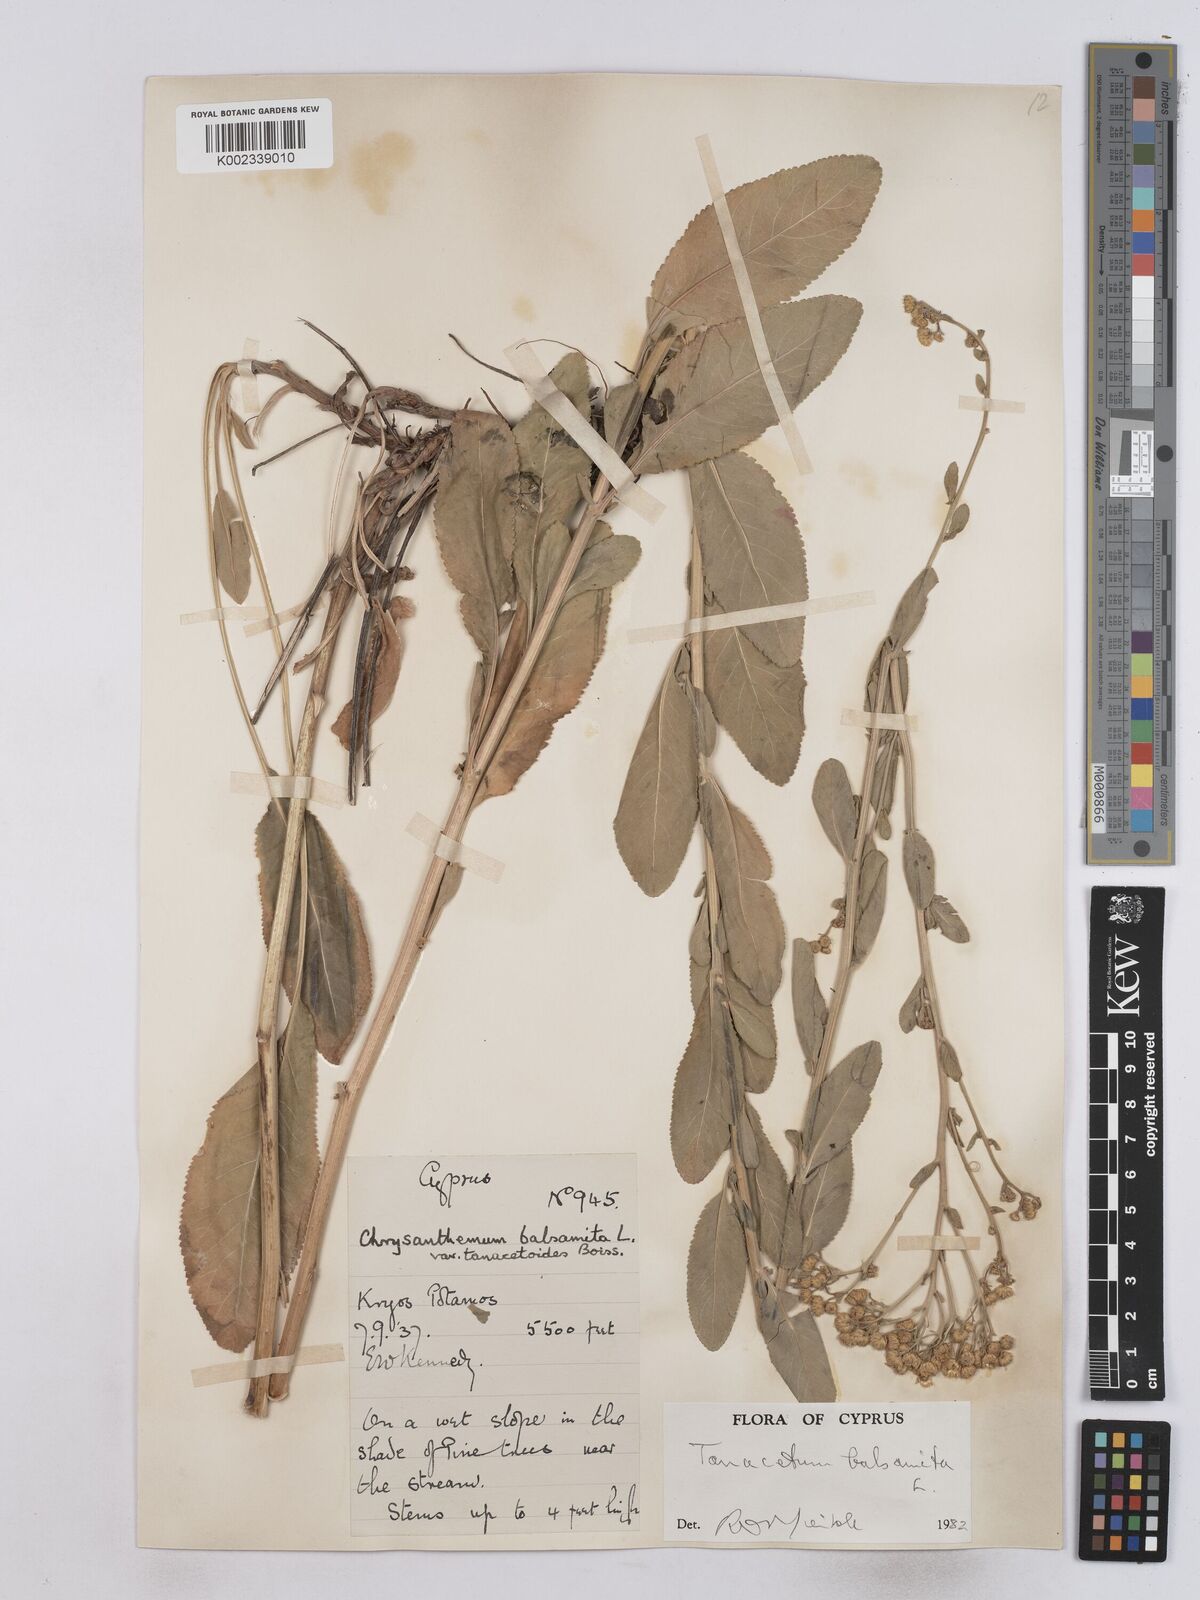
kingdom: Plantae
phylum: Tracheophyta
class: Magnoliopsida
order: Asterales
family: Asteraceae
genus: Tanacetum
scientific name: Tanacetum balsamita
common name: Costmary
